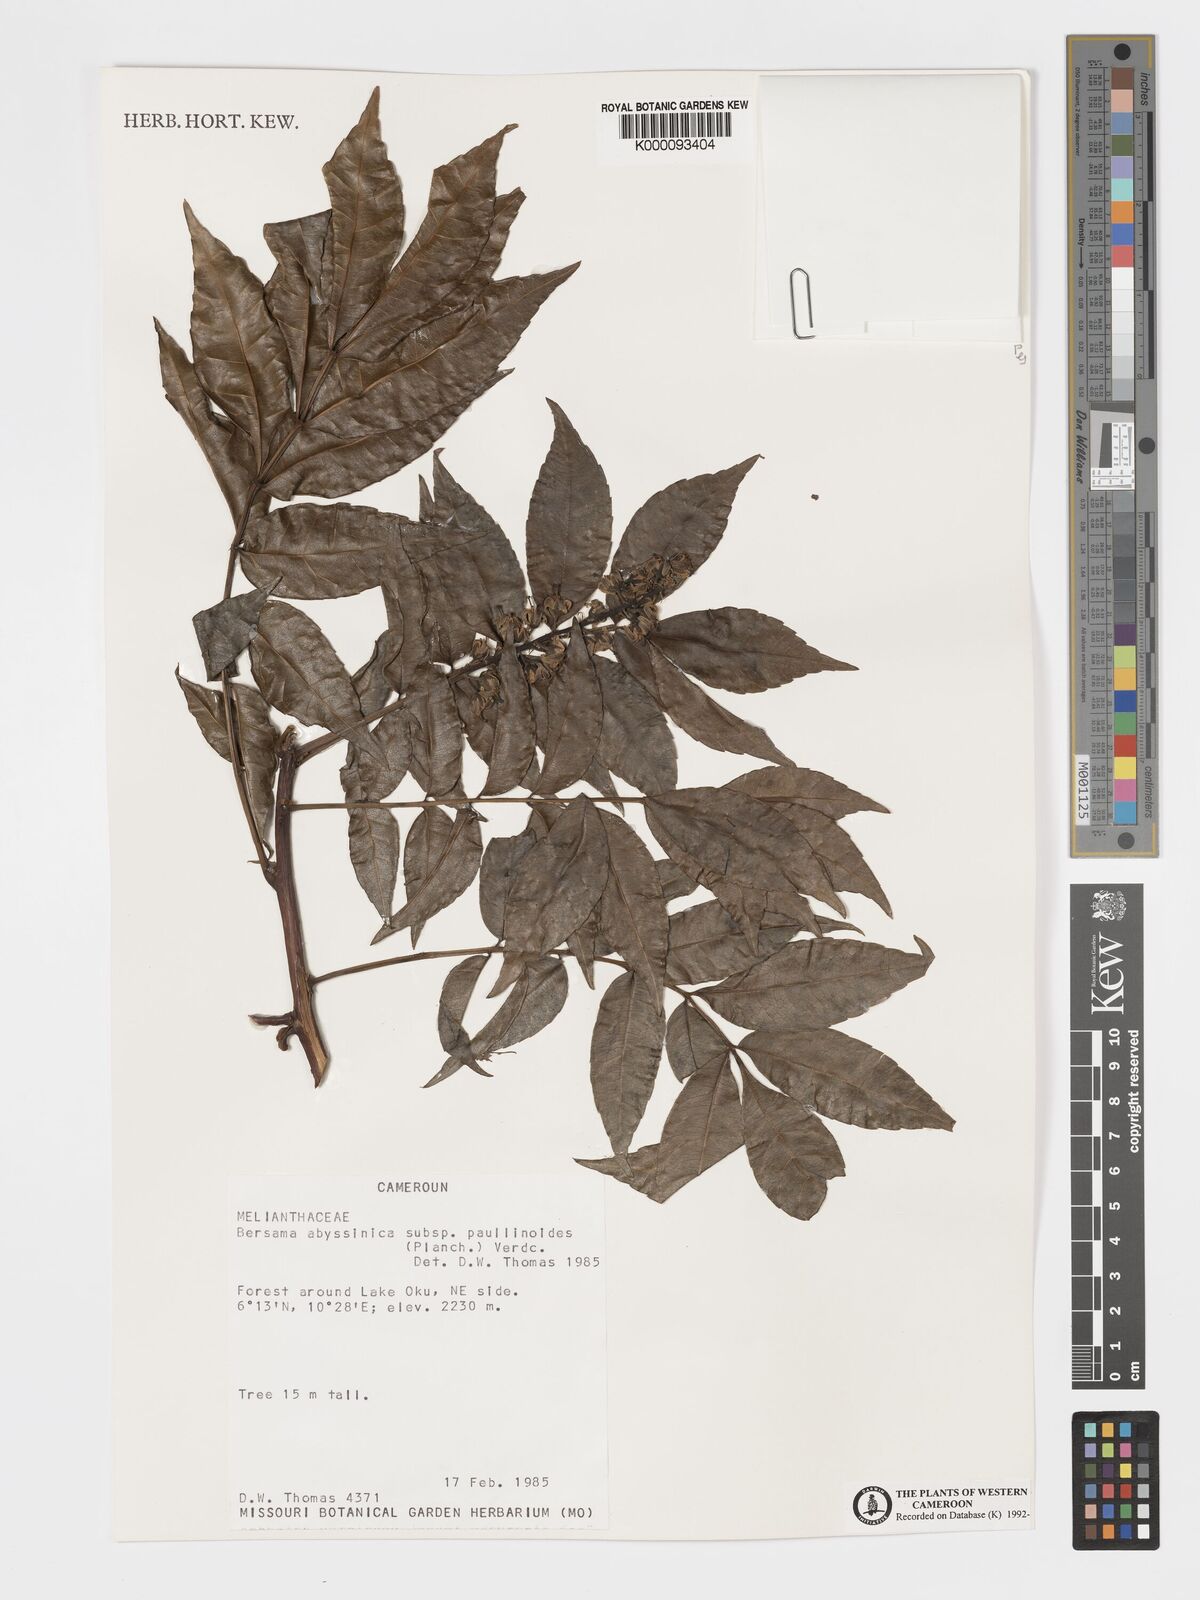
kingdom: Plantae
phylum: Tracheophyta
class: Magnoliopsida
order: Geraniales
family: Melianthaceae
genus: Bersama
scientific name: Bersama
